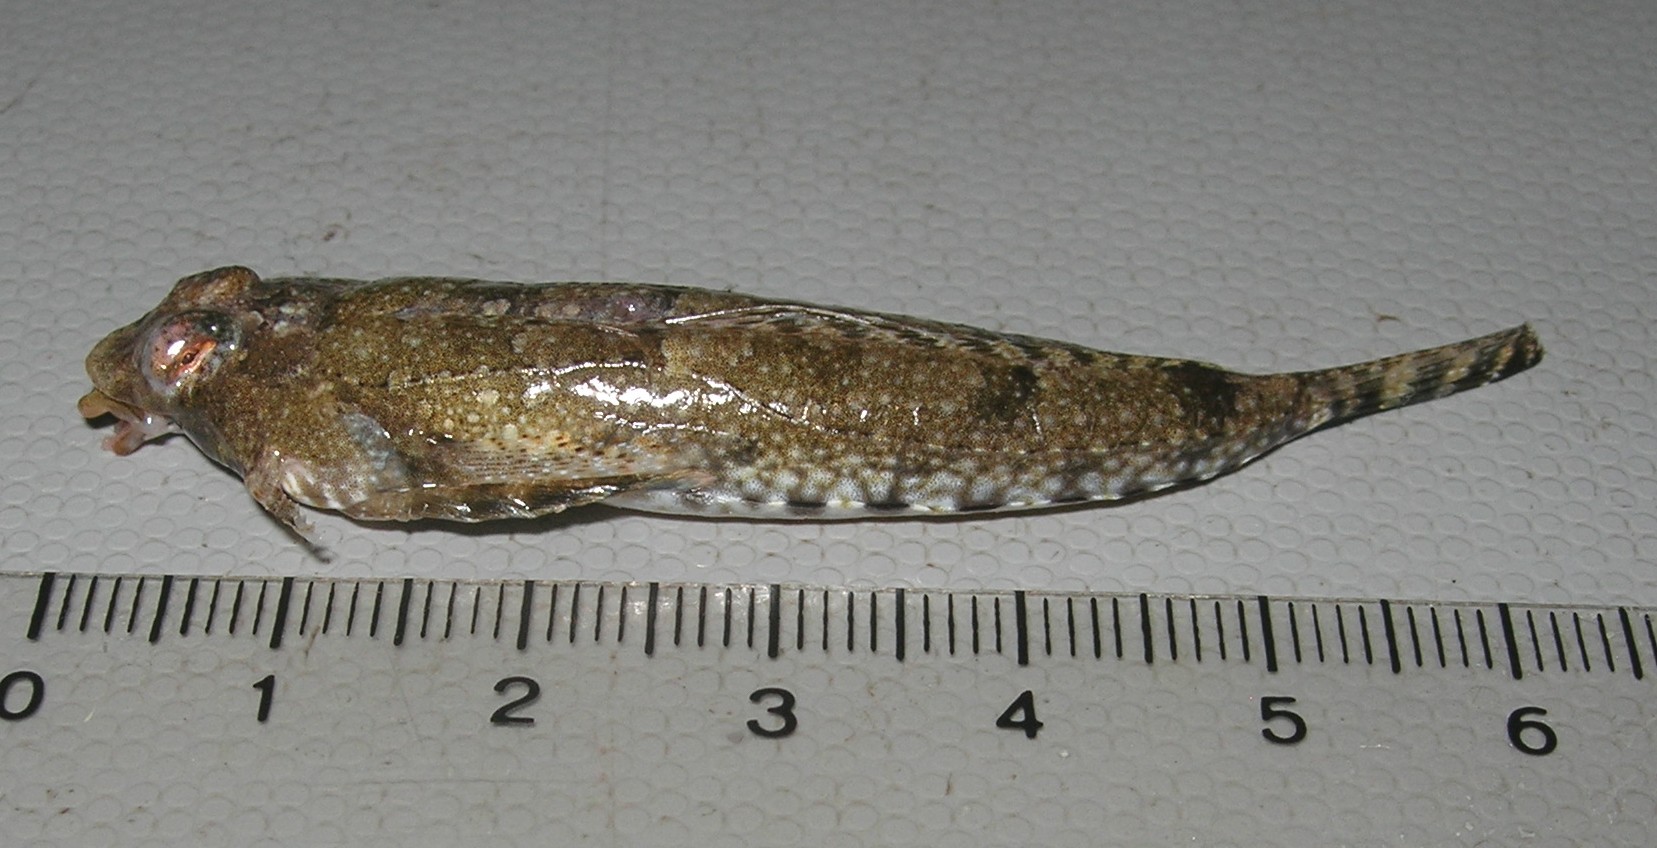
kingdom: Animalia
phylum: Chordata
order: Perciformes
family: Callionymidae
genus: Diplogrammus
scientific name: Diplogrammus infulatus
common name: Indian ocean fold dragonet
